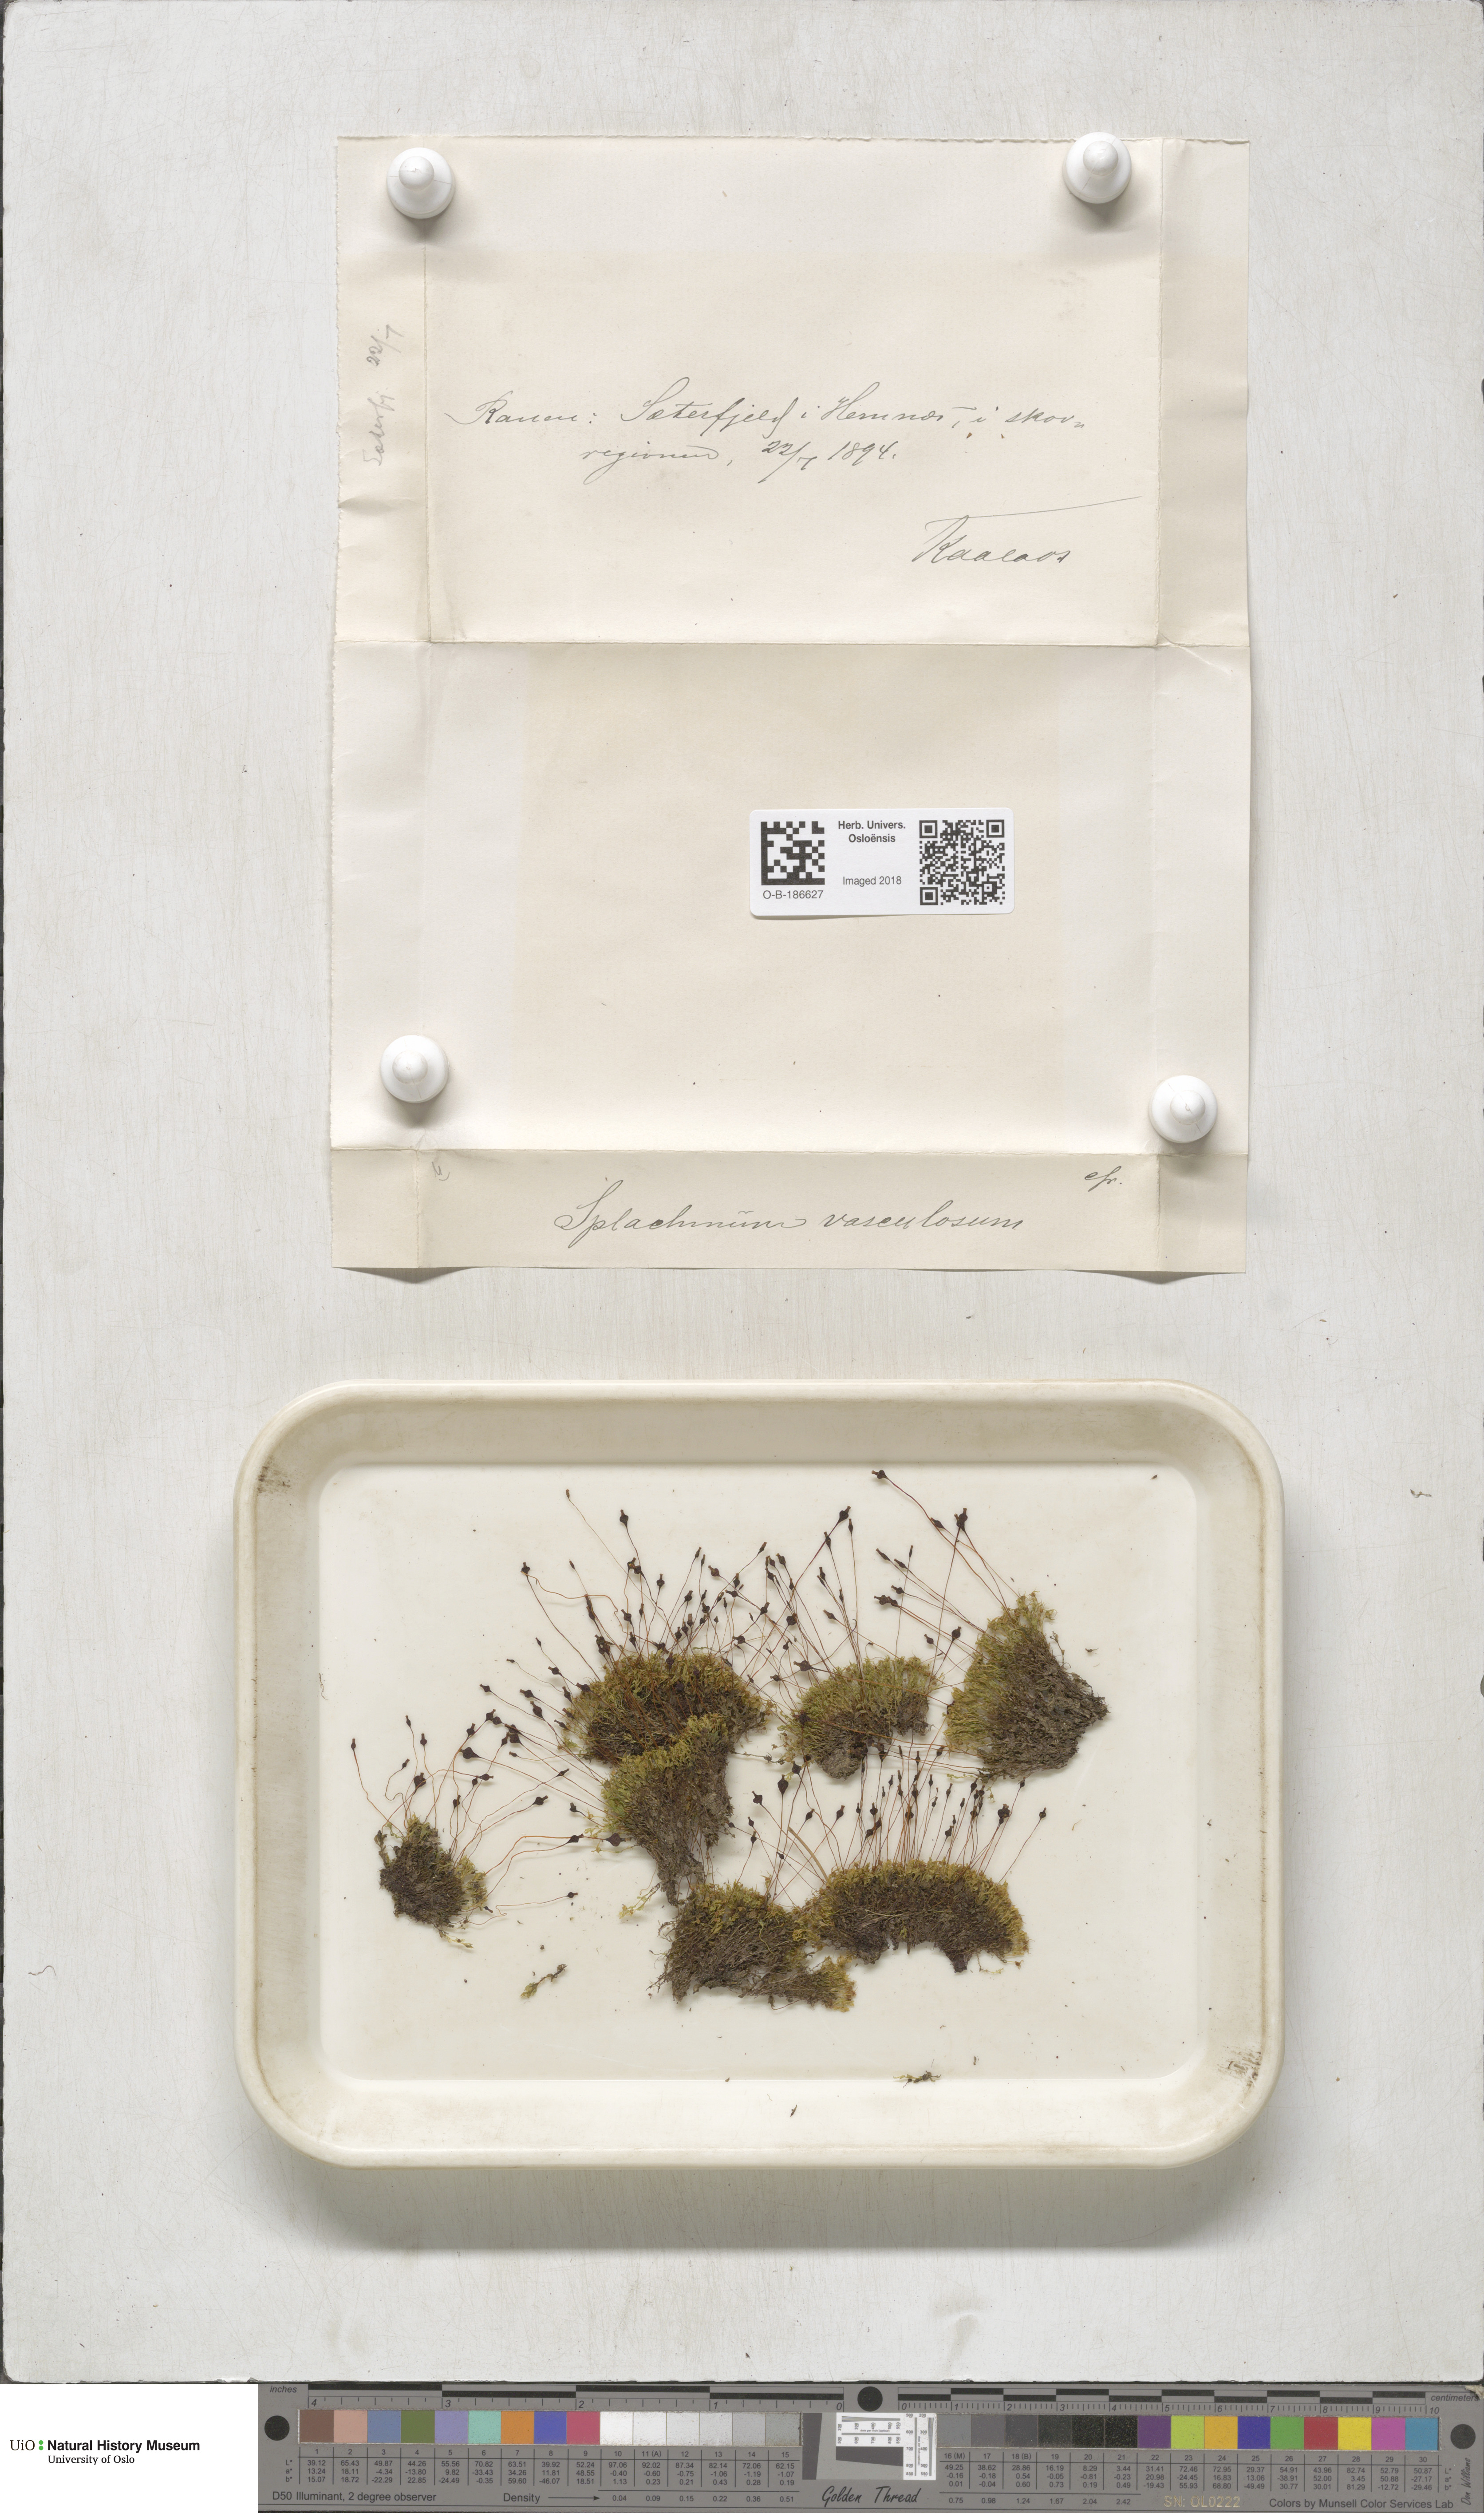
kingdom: Plantae
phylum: Bryophyta
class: Bryopsida
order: Splachnales
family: Splachnaceae
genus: Splachnum
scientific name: Splachnum vasculosum
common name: Rugged dung moss
